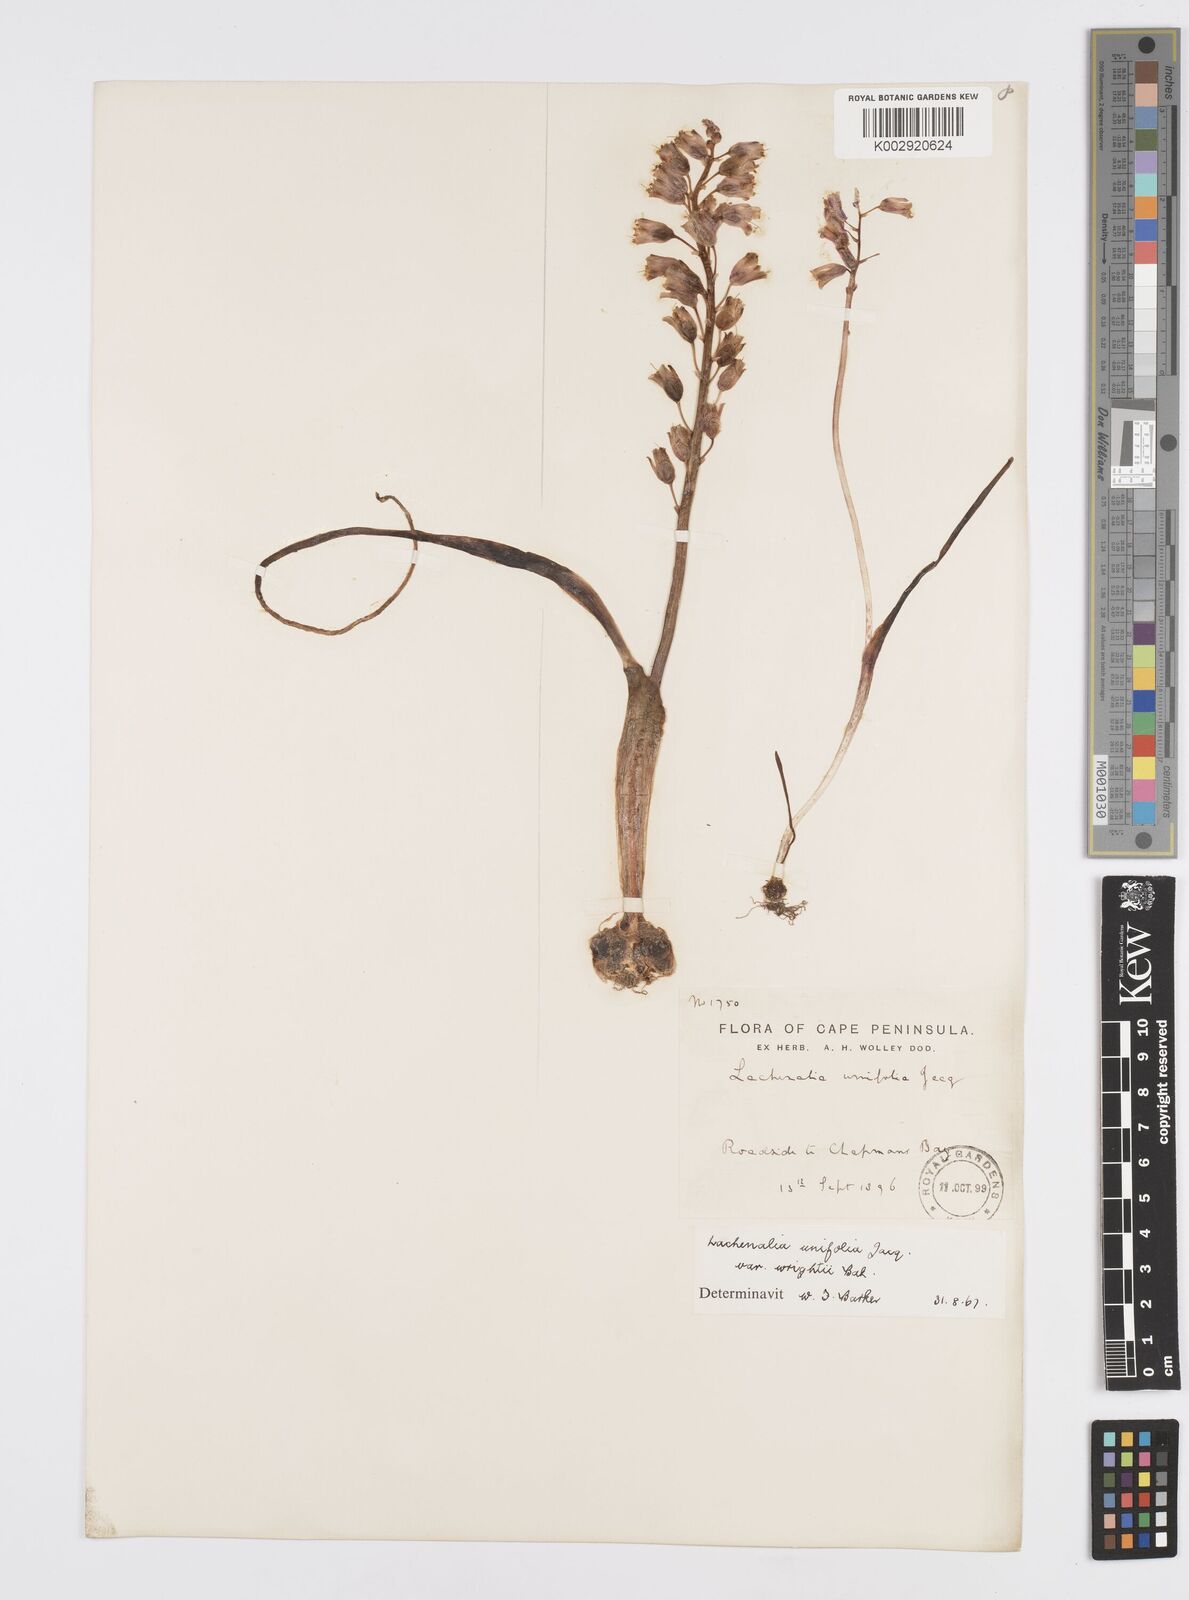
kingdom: Plantae
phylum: Tracheophyta
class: Liliopsida
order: Asparagales
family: Asparagaceae
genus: Lachenalia
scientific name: Lachenalia unifolia
